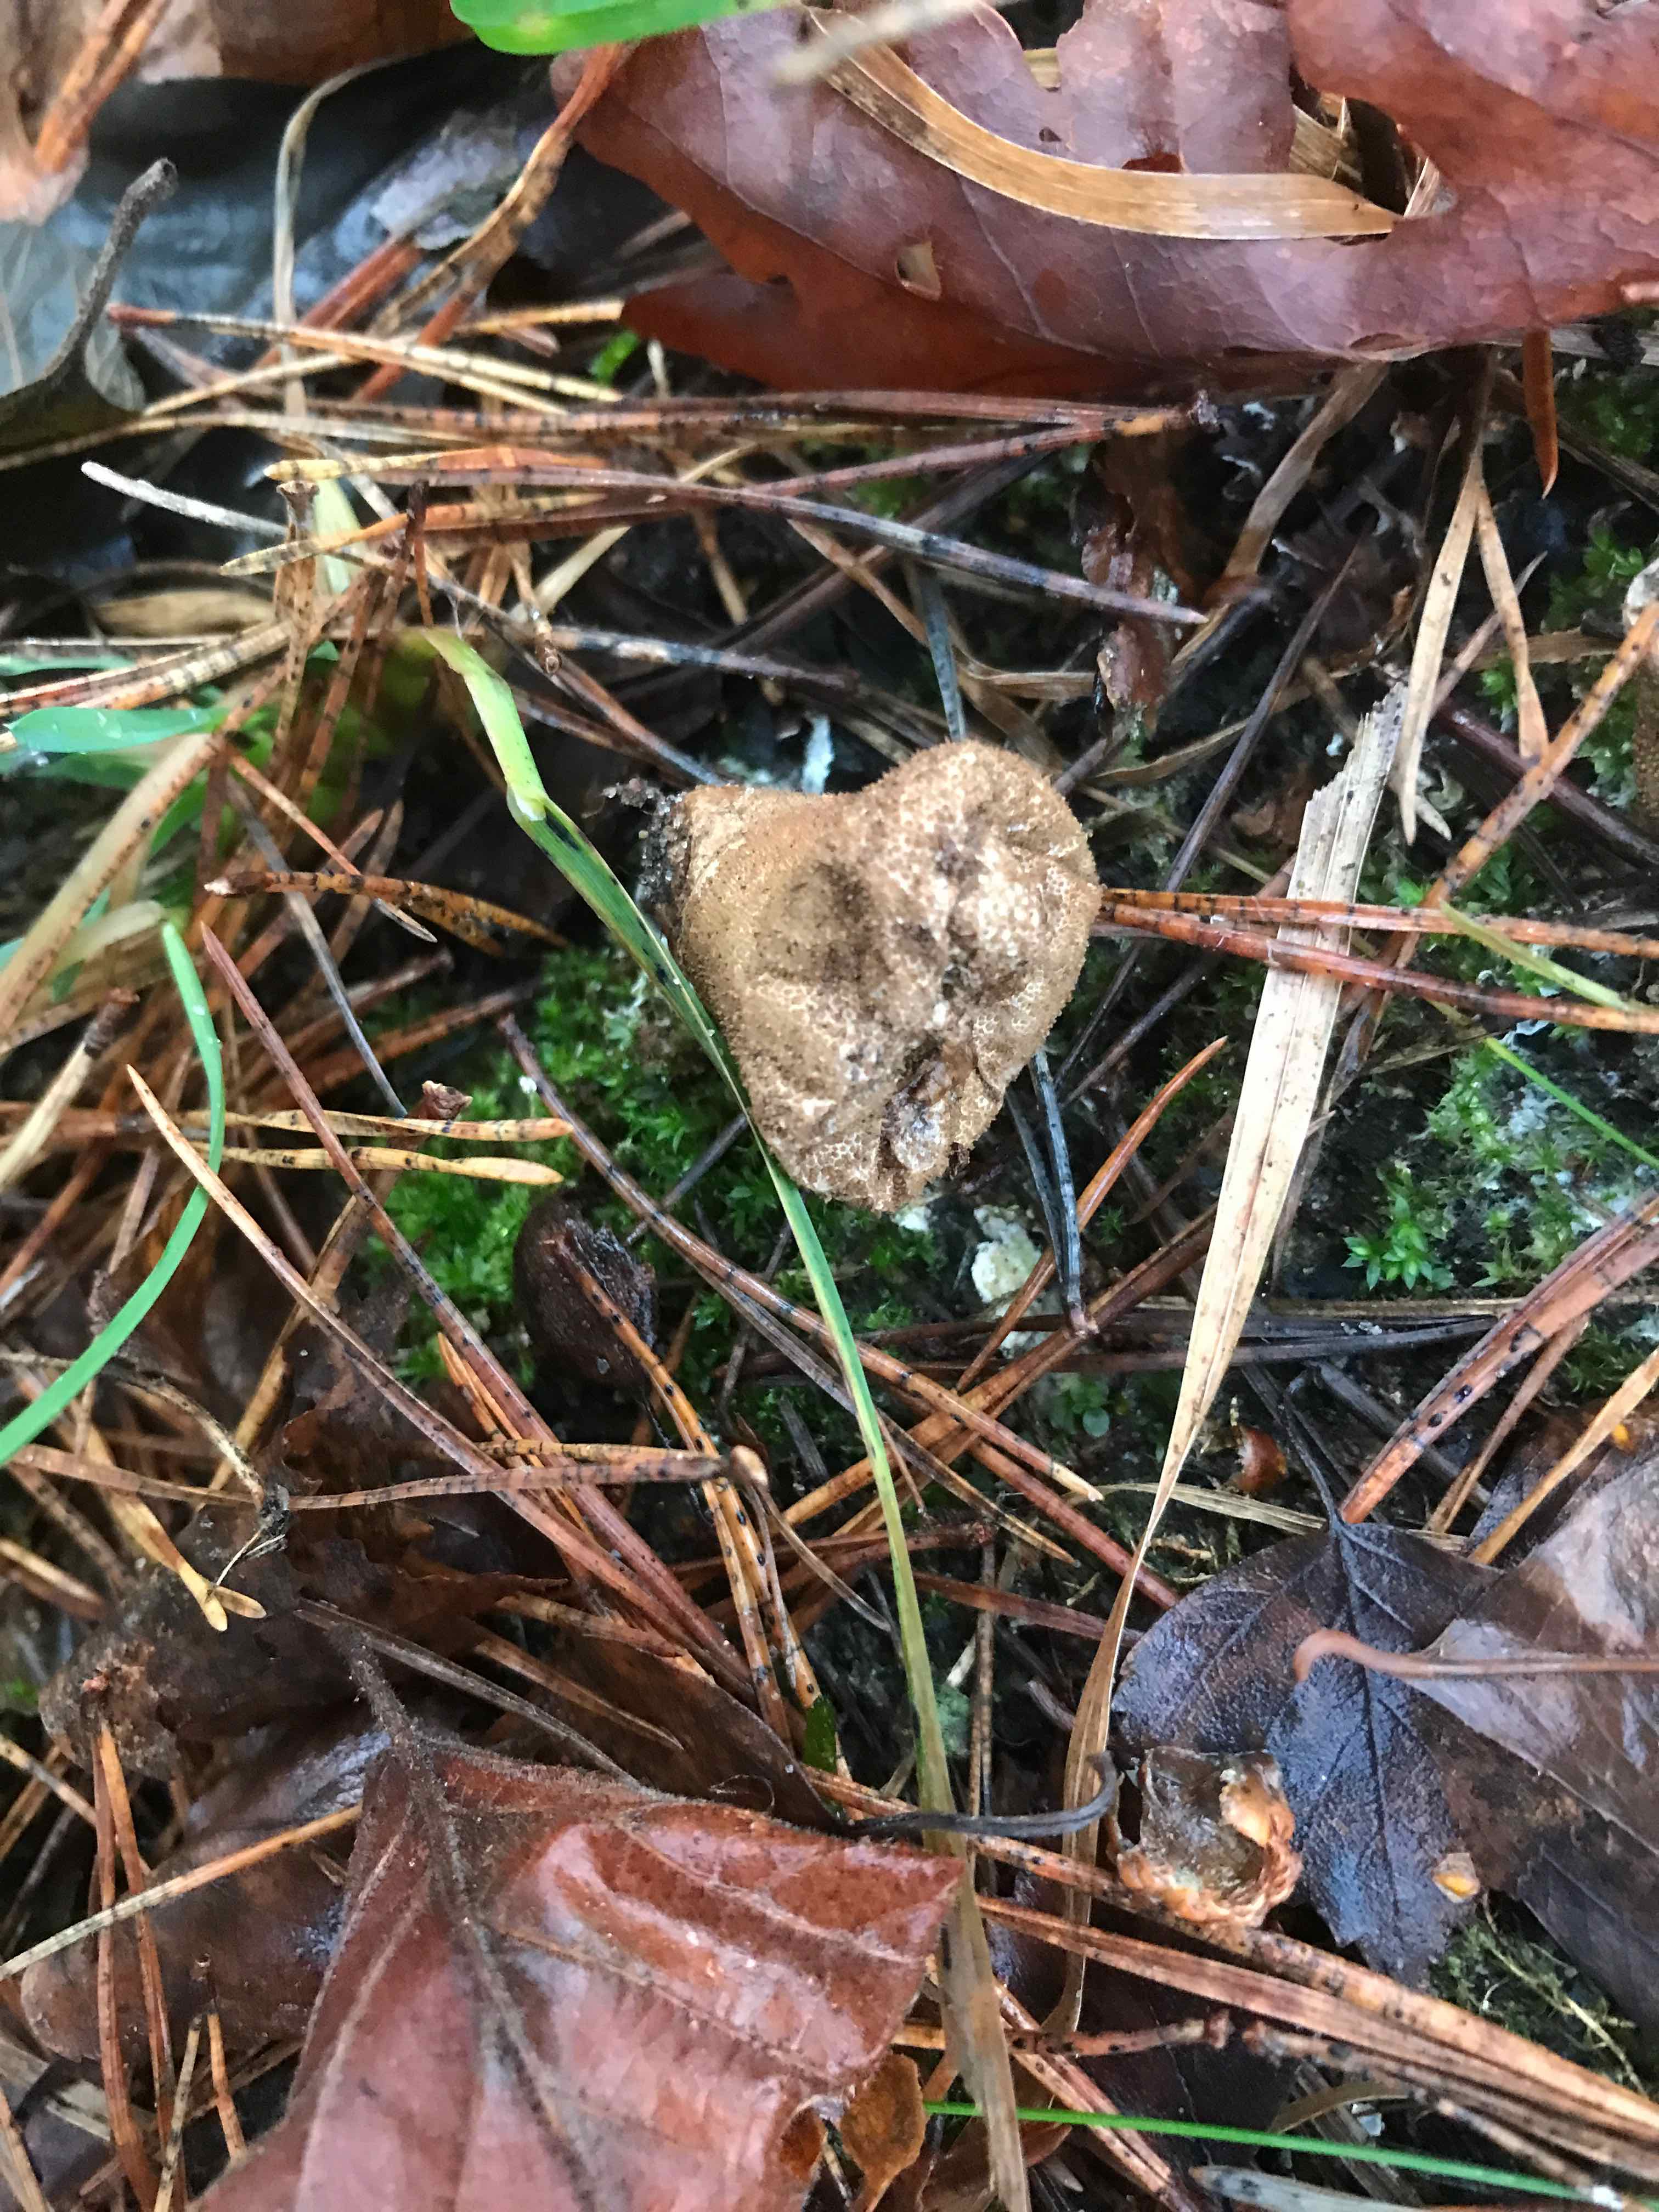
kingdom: Fungi
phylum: Basidiomycota
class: Agaricomycetes
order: Agaricales
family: Lycoperdaceae
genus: Apioperdon
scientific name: Apioperdon pyriforme
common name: pære-støvbold
